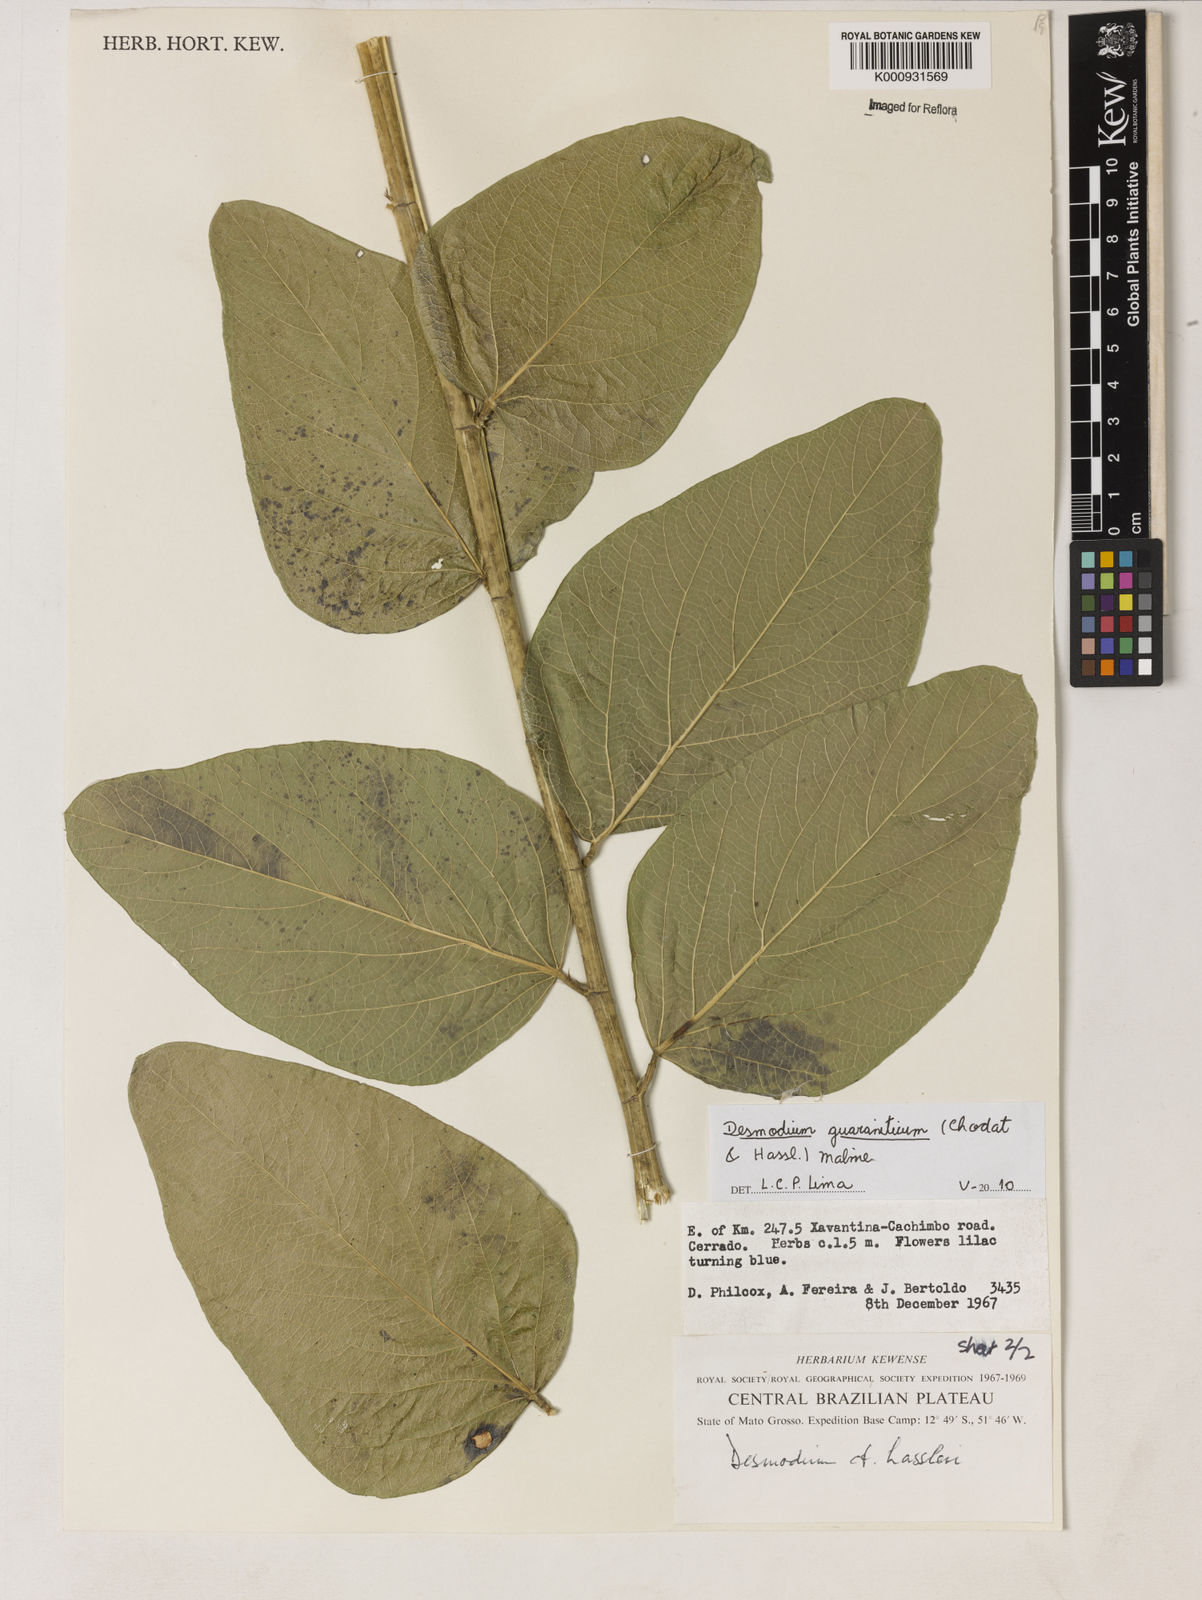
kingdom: Plantae
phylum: Tracheophyta
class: Magnoliopsida
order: Fabales
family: Fabaceae
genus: Desmodium
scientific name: Desmodium guaraniticum
